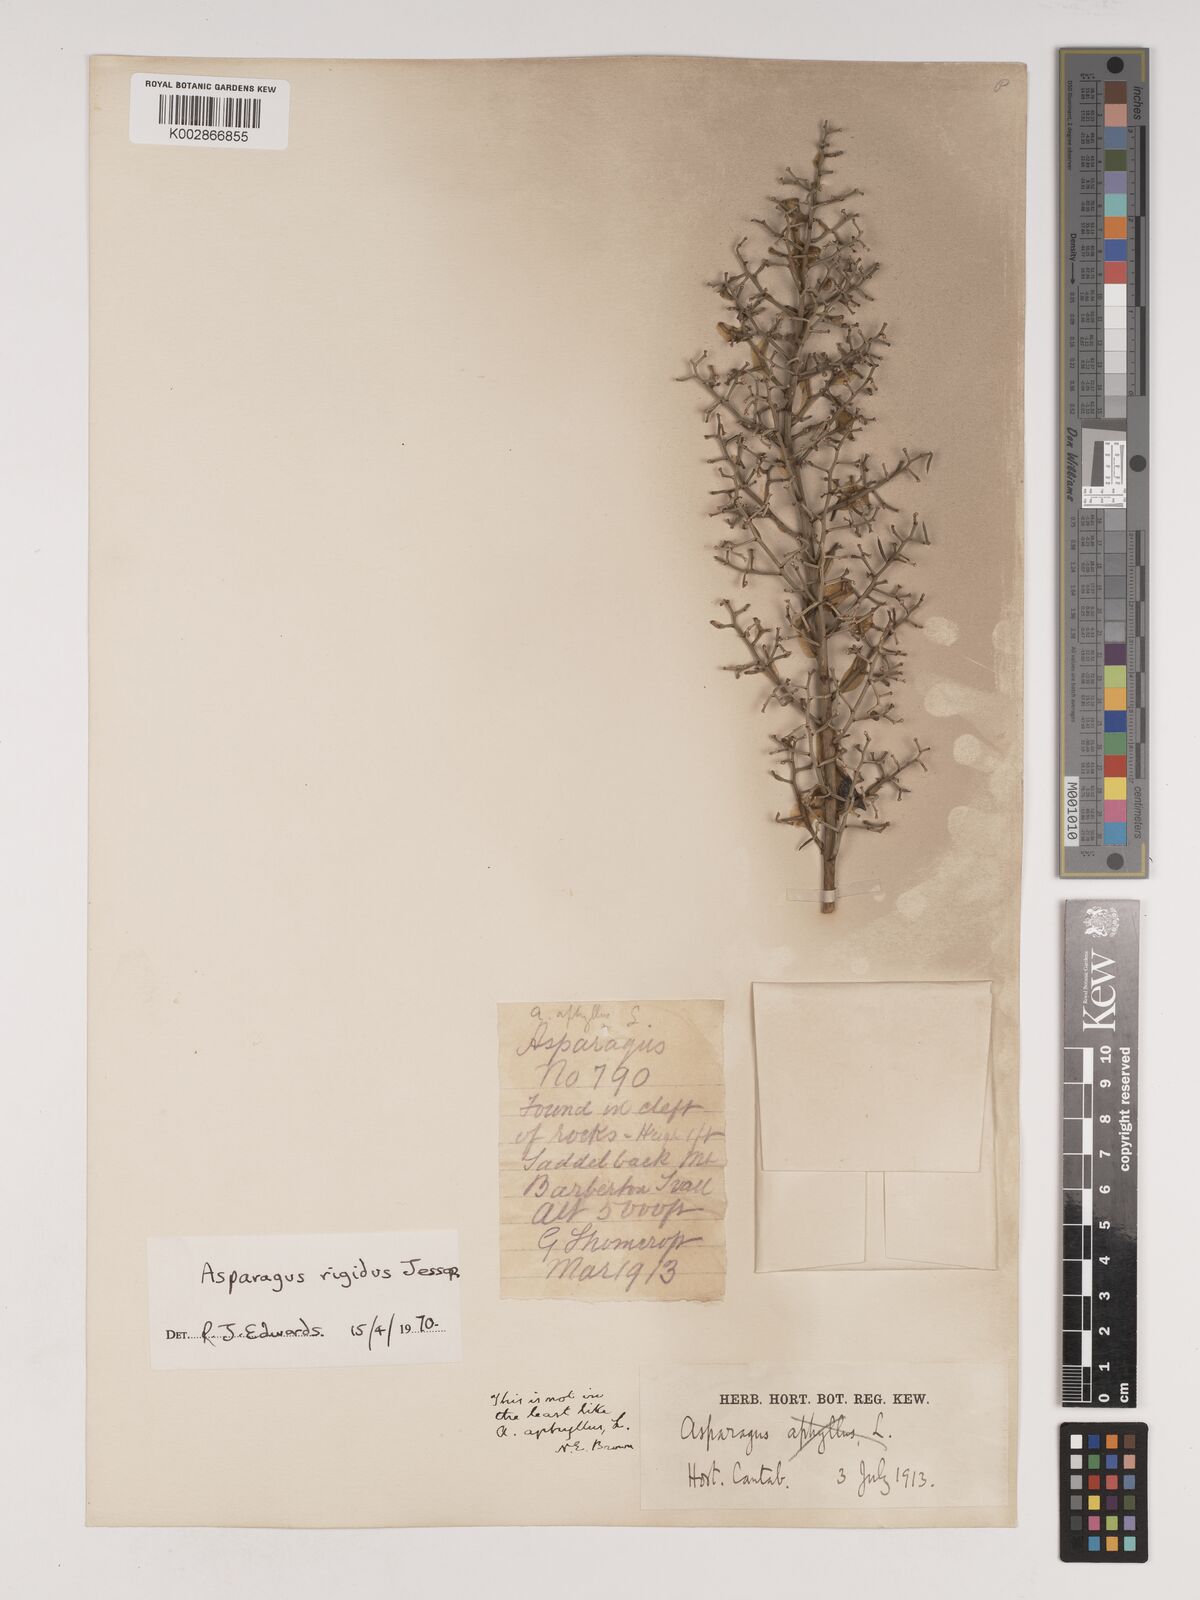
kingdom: Plantae
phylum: Tracheophyta
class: Liliopsida
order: Asparagales
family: Asparagaceae
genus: Asparagus
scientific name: Asparagus rigidus
